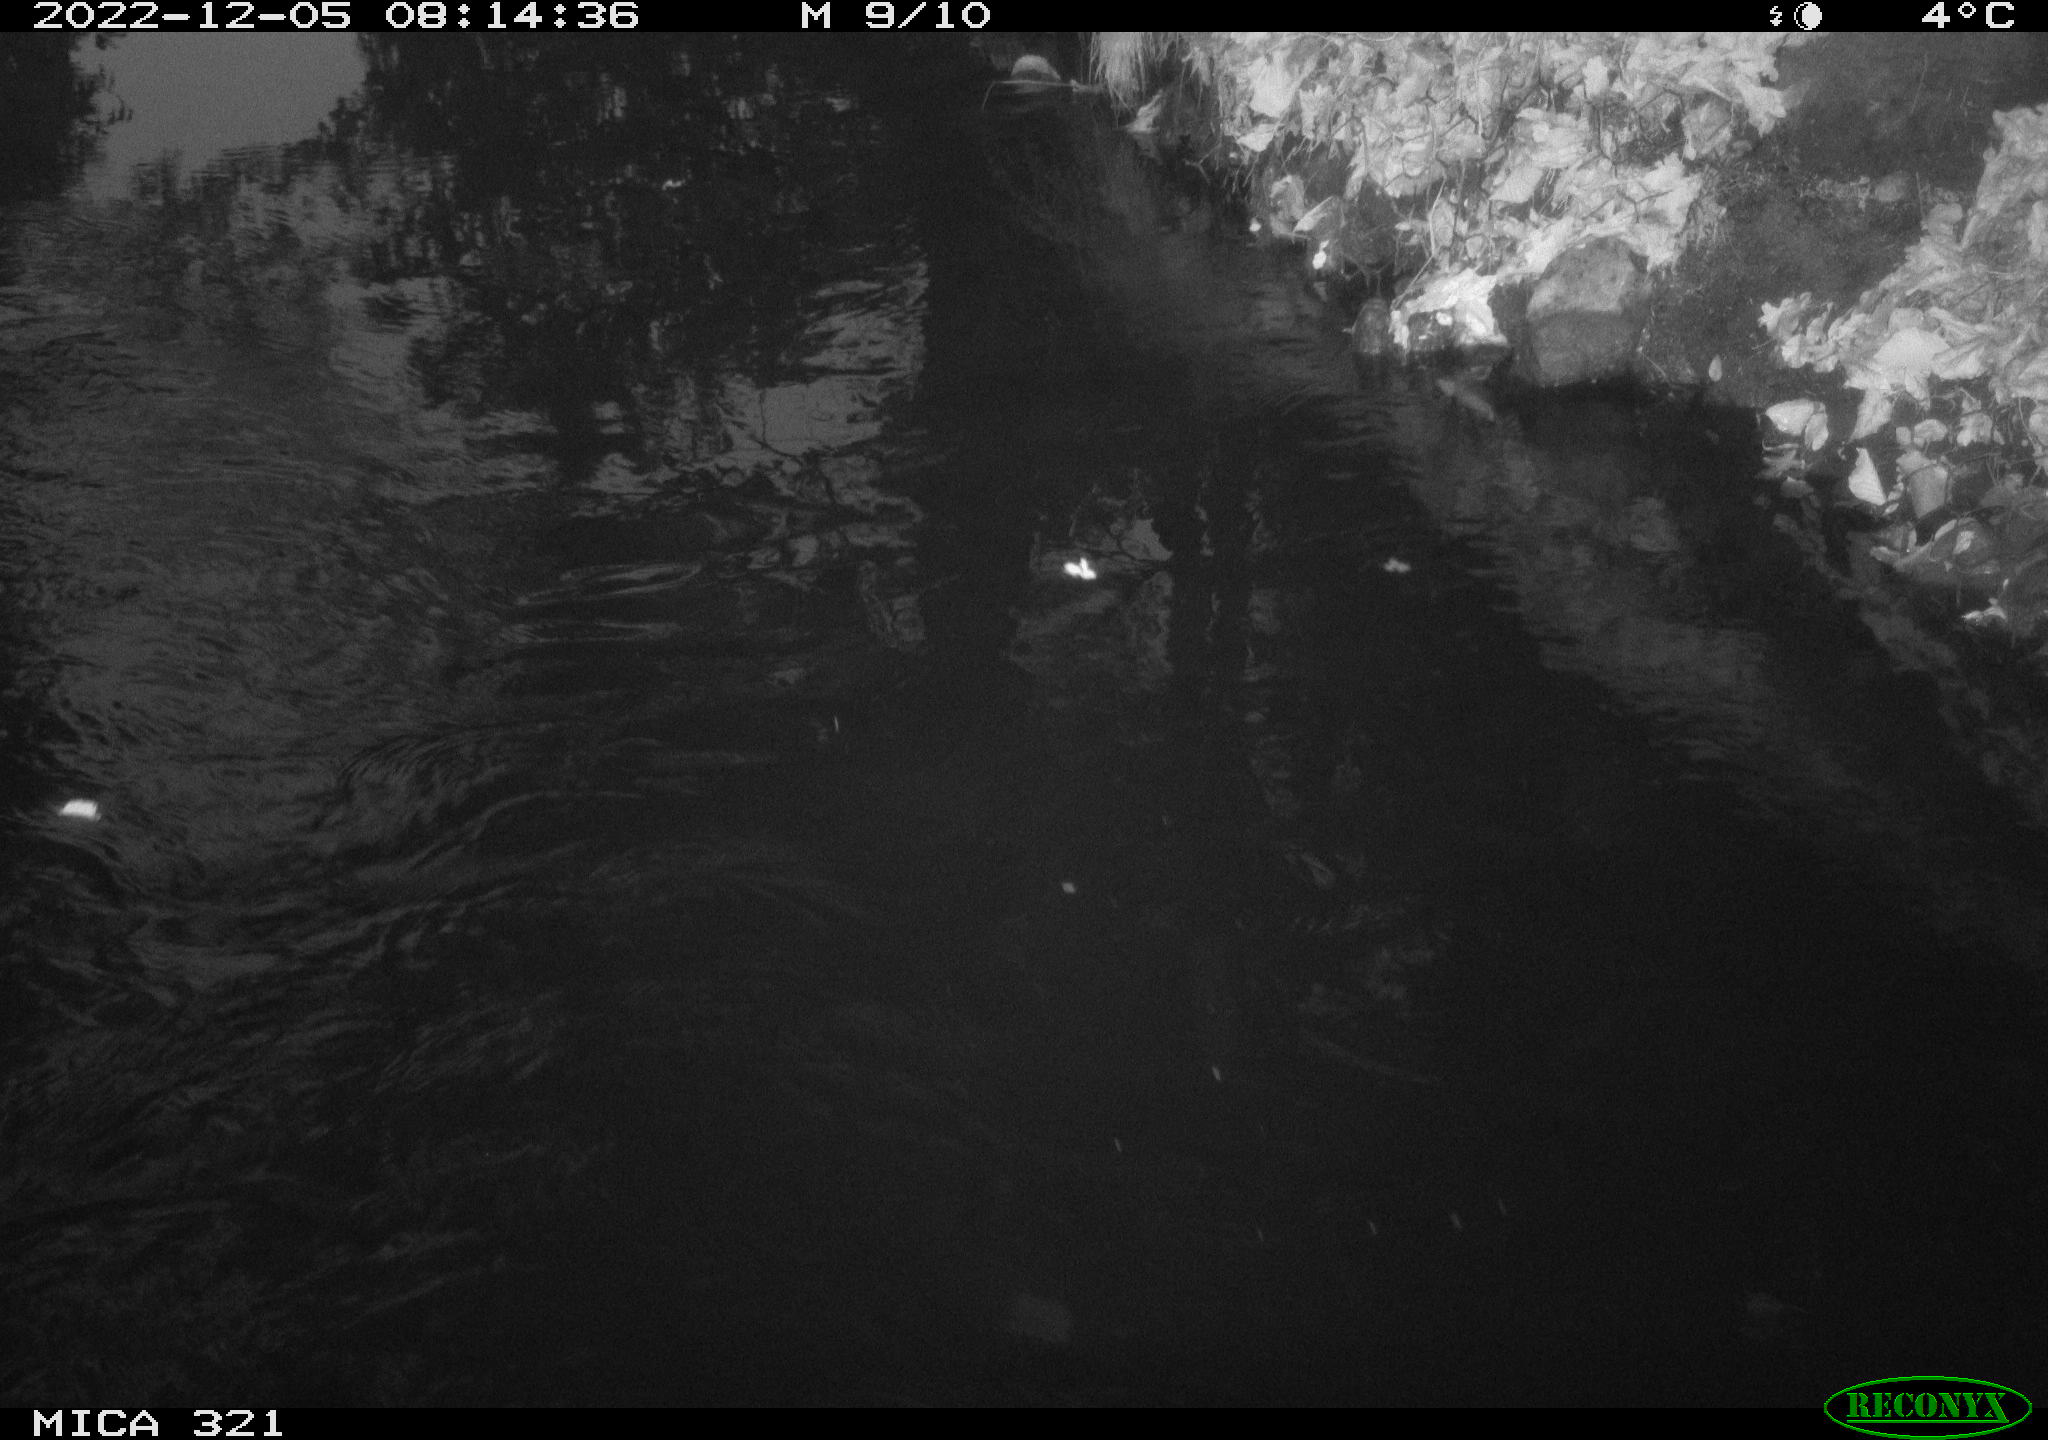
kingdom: Animalia
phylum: Chordata
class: Aves
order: Anseriformes
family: Anatidae
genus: Anas
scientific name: Anas
